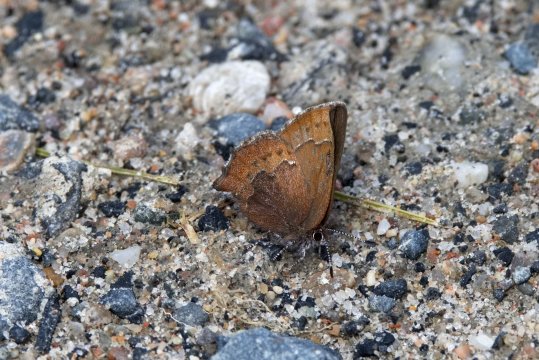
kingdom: Animalia
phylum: Arthropoda
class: Insecta
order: Lepidoptera
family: Lycaenidae
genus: Incisalia
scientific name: Incisalia irioides
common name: Brown Elfin
